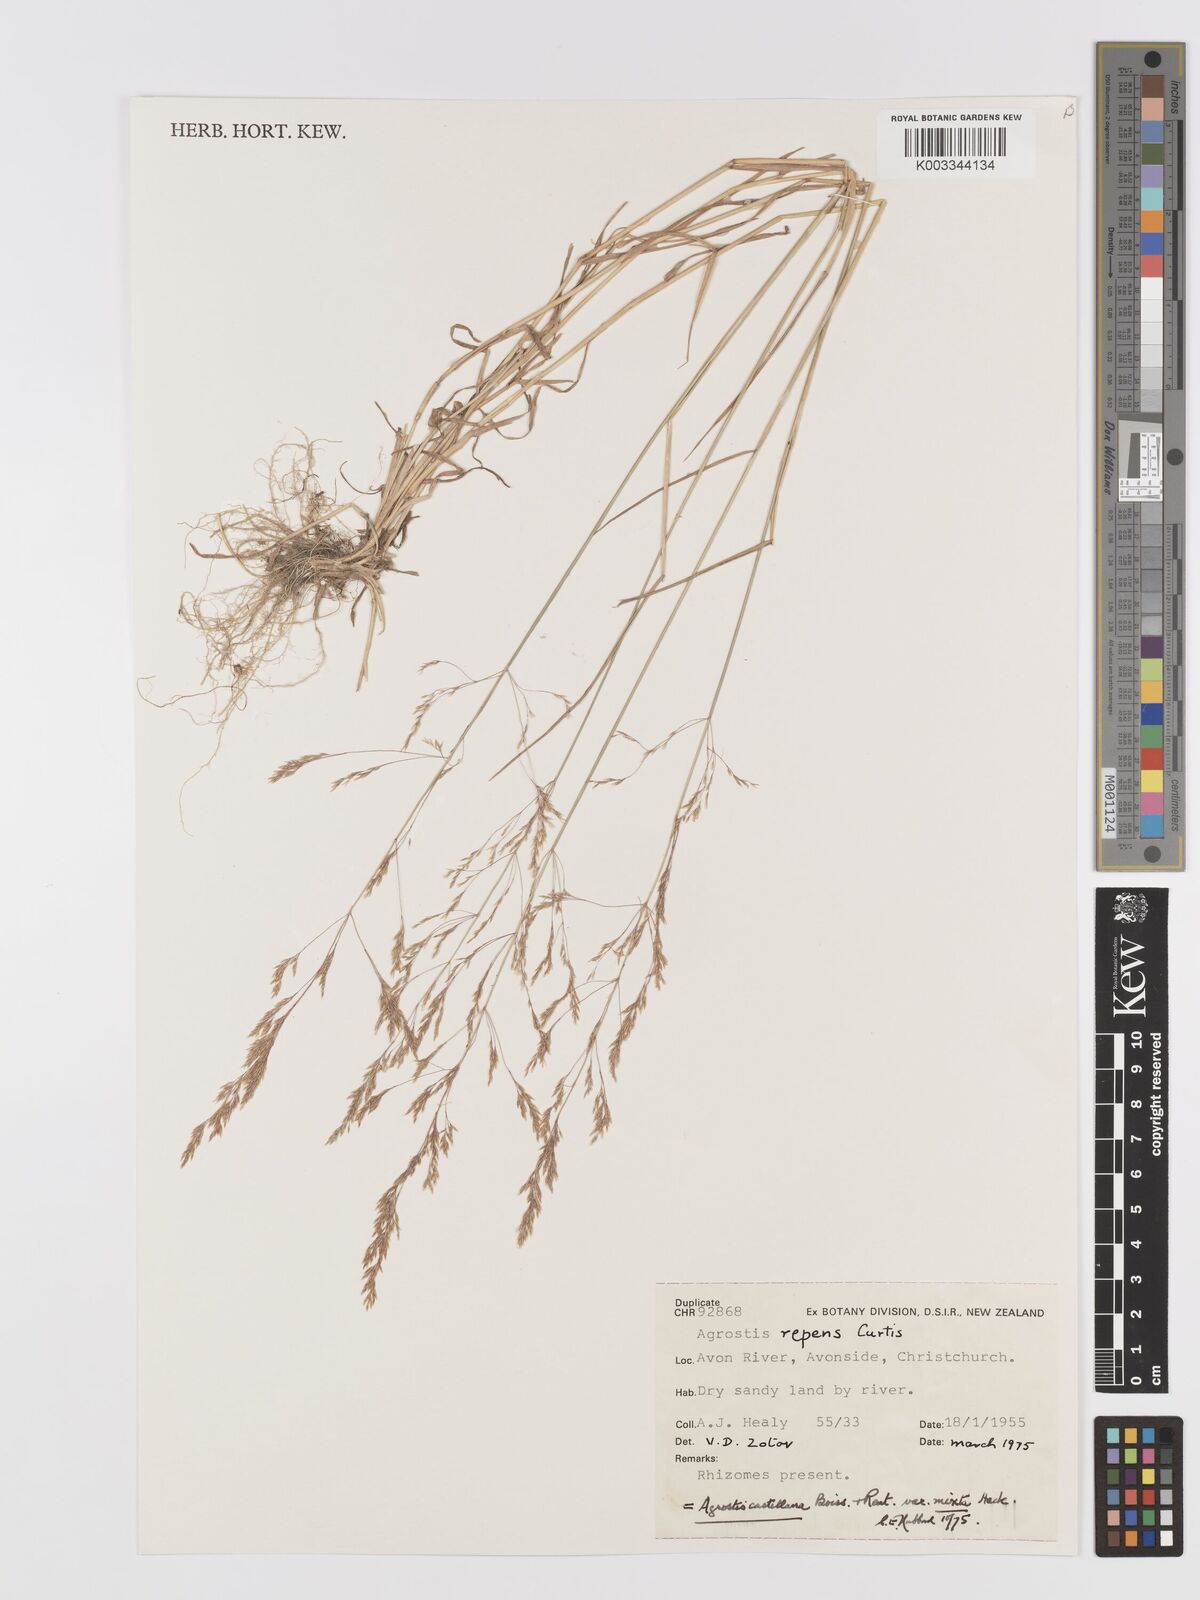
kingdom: Plantae
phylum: Tracheophyta
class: Liliopsida
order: Poales
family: Poaceae
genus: Agrostis
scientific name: Agrostis castellana
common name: Highland bent
